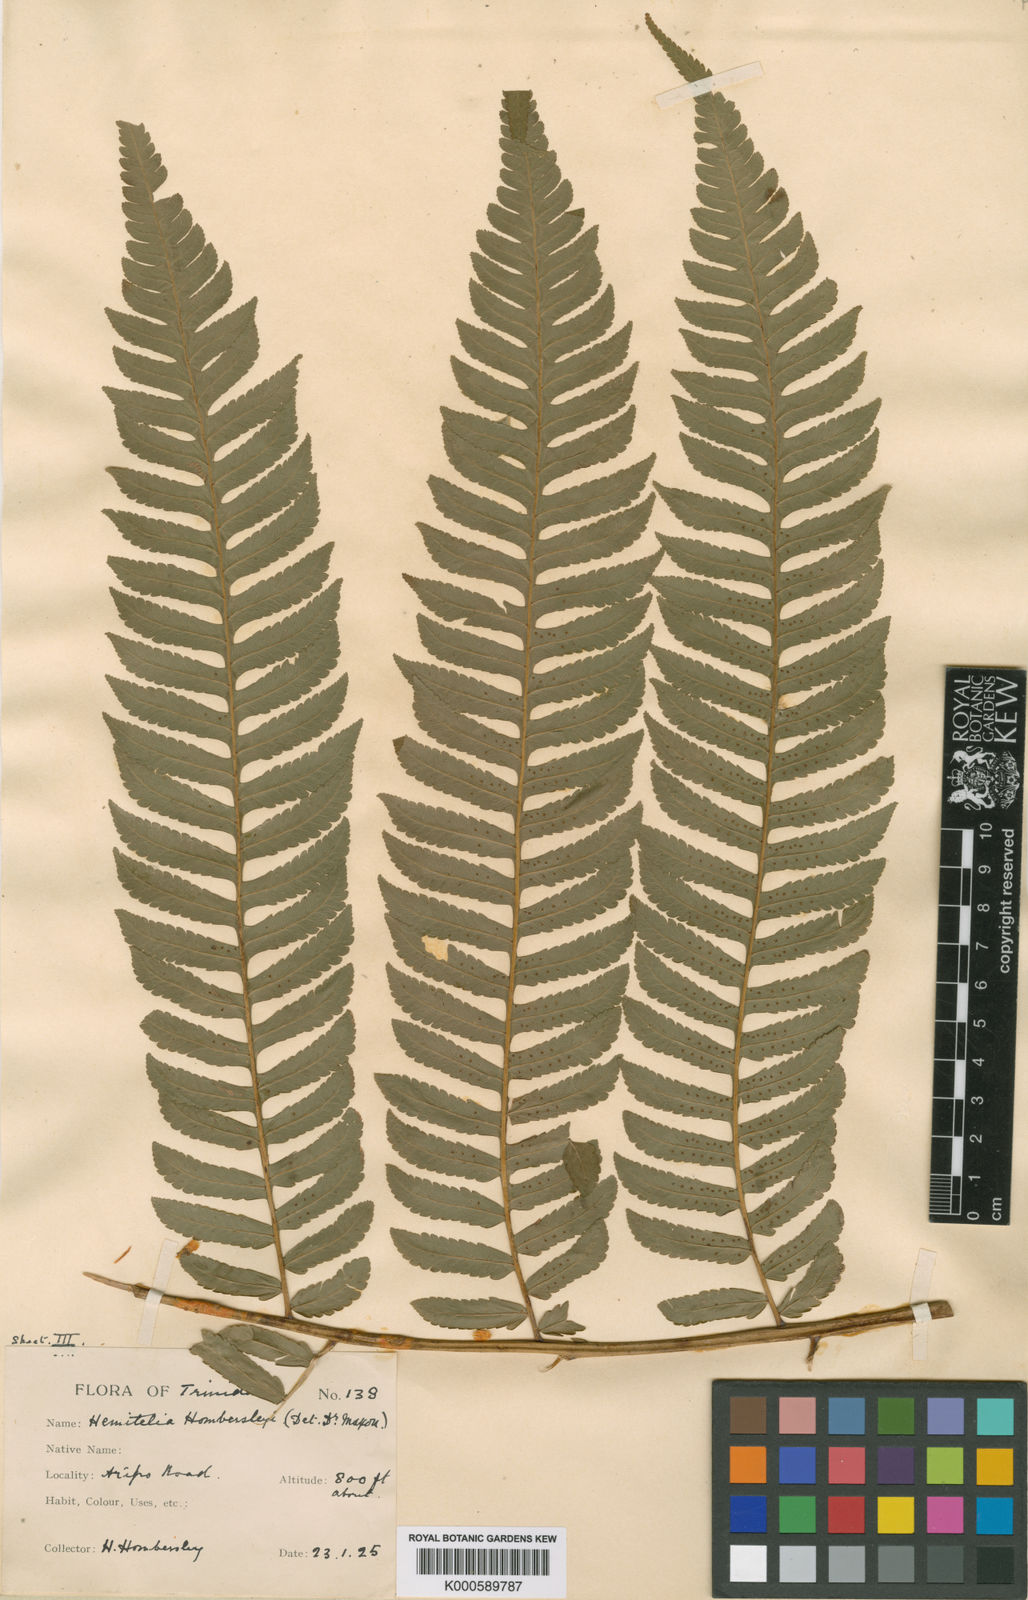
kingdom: Plantae
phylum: Tracheophyta
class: Polypodiopsida
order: Cyatheales
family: Cyatheaceae
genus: Cyathea
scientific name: Cyathea hombersleyi
